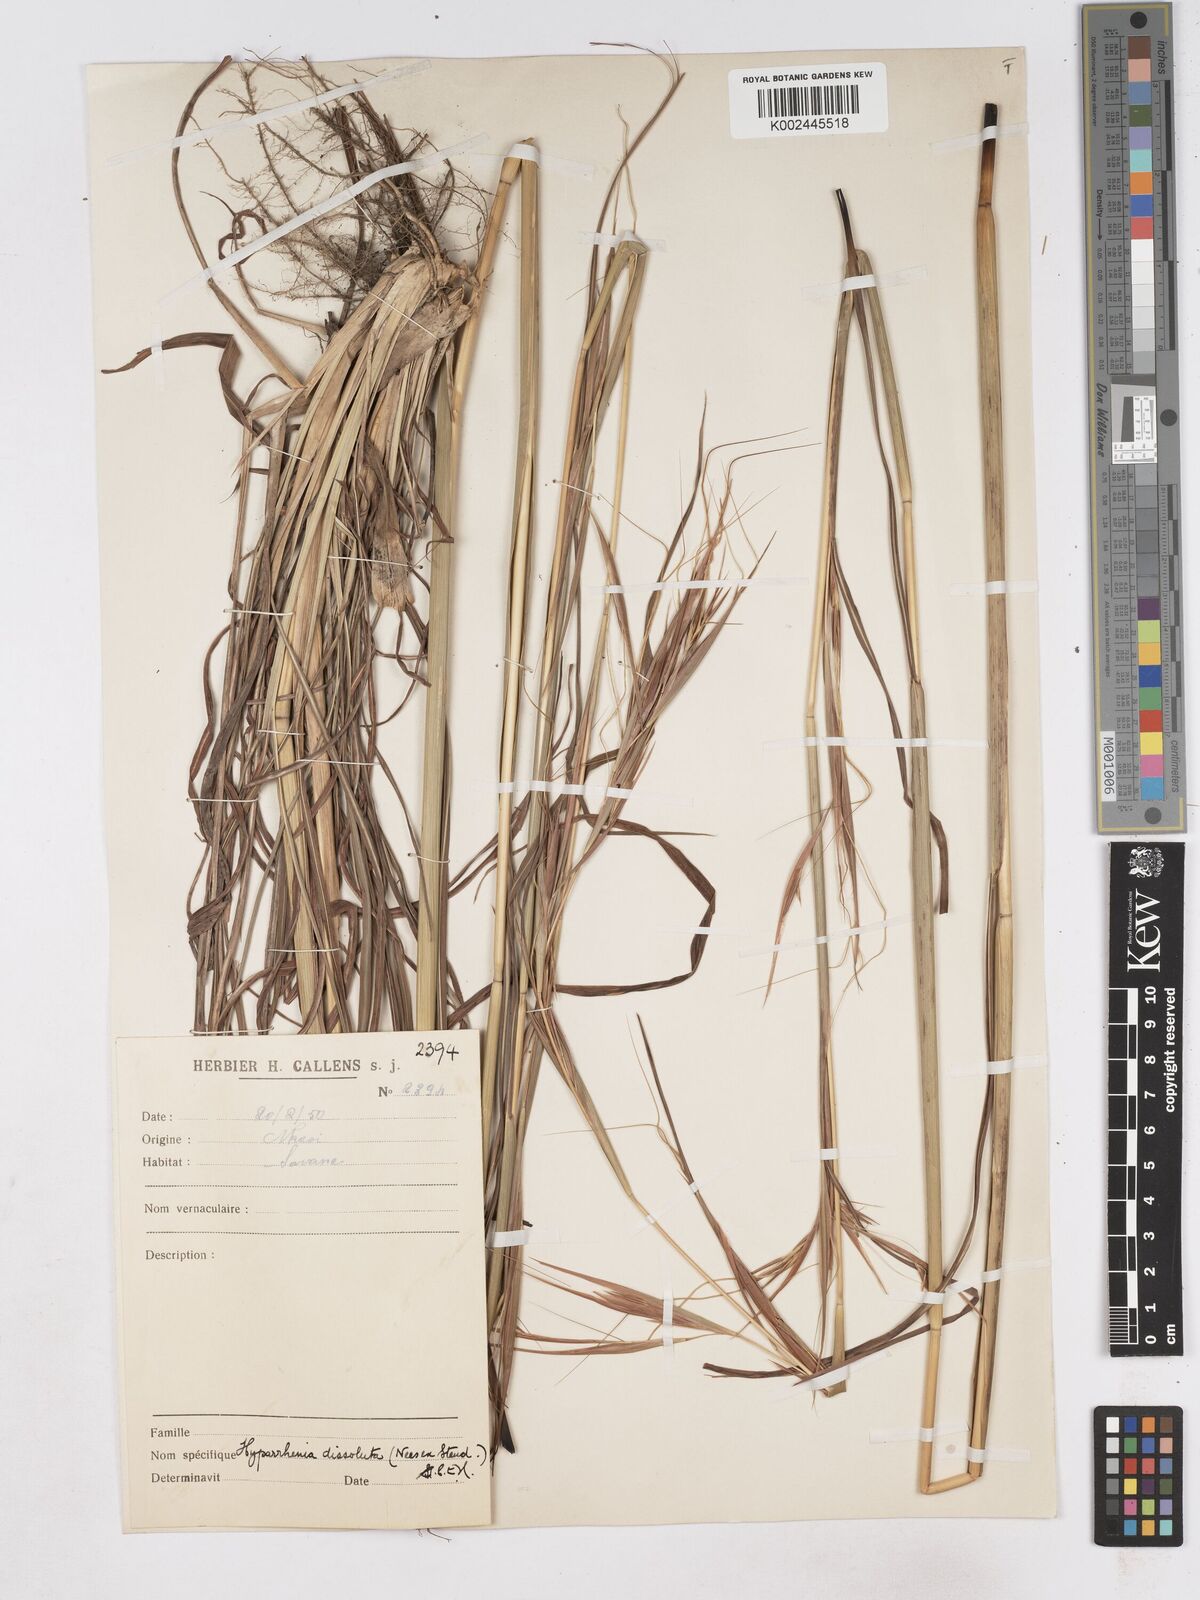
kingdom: Plantae
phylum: Tracheophyta
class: Liliopsida
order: Poales
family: Poaceae
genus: Hyperthelia
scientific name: Hyperthelia dissoluta
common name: Yellow thatching grass
